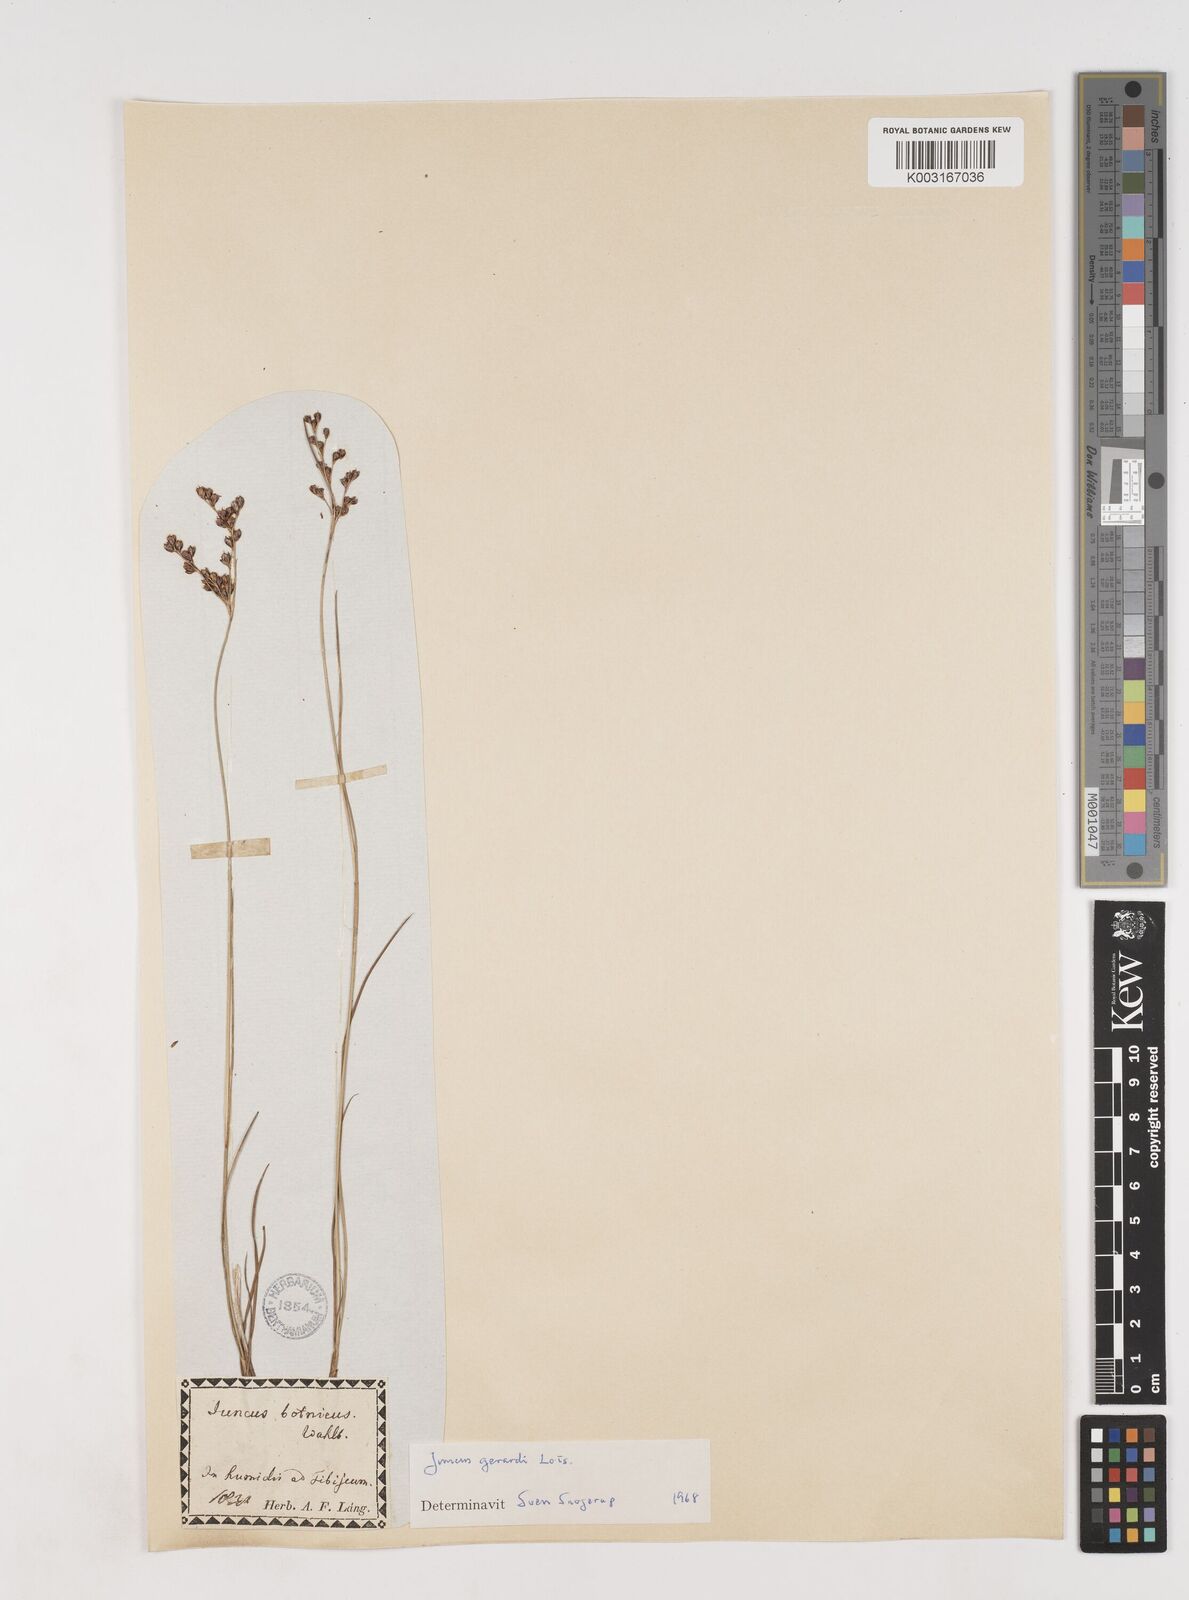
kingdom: Plantae
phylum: Tracheophyta
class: Liliopsida
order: Poales
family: Juncaceae
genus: Juncus
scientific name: Juncus gerardi
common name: Saltmarsh rush
